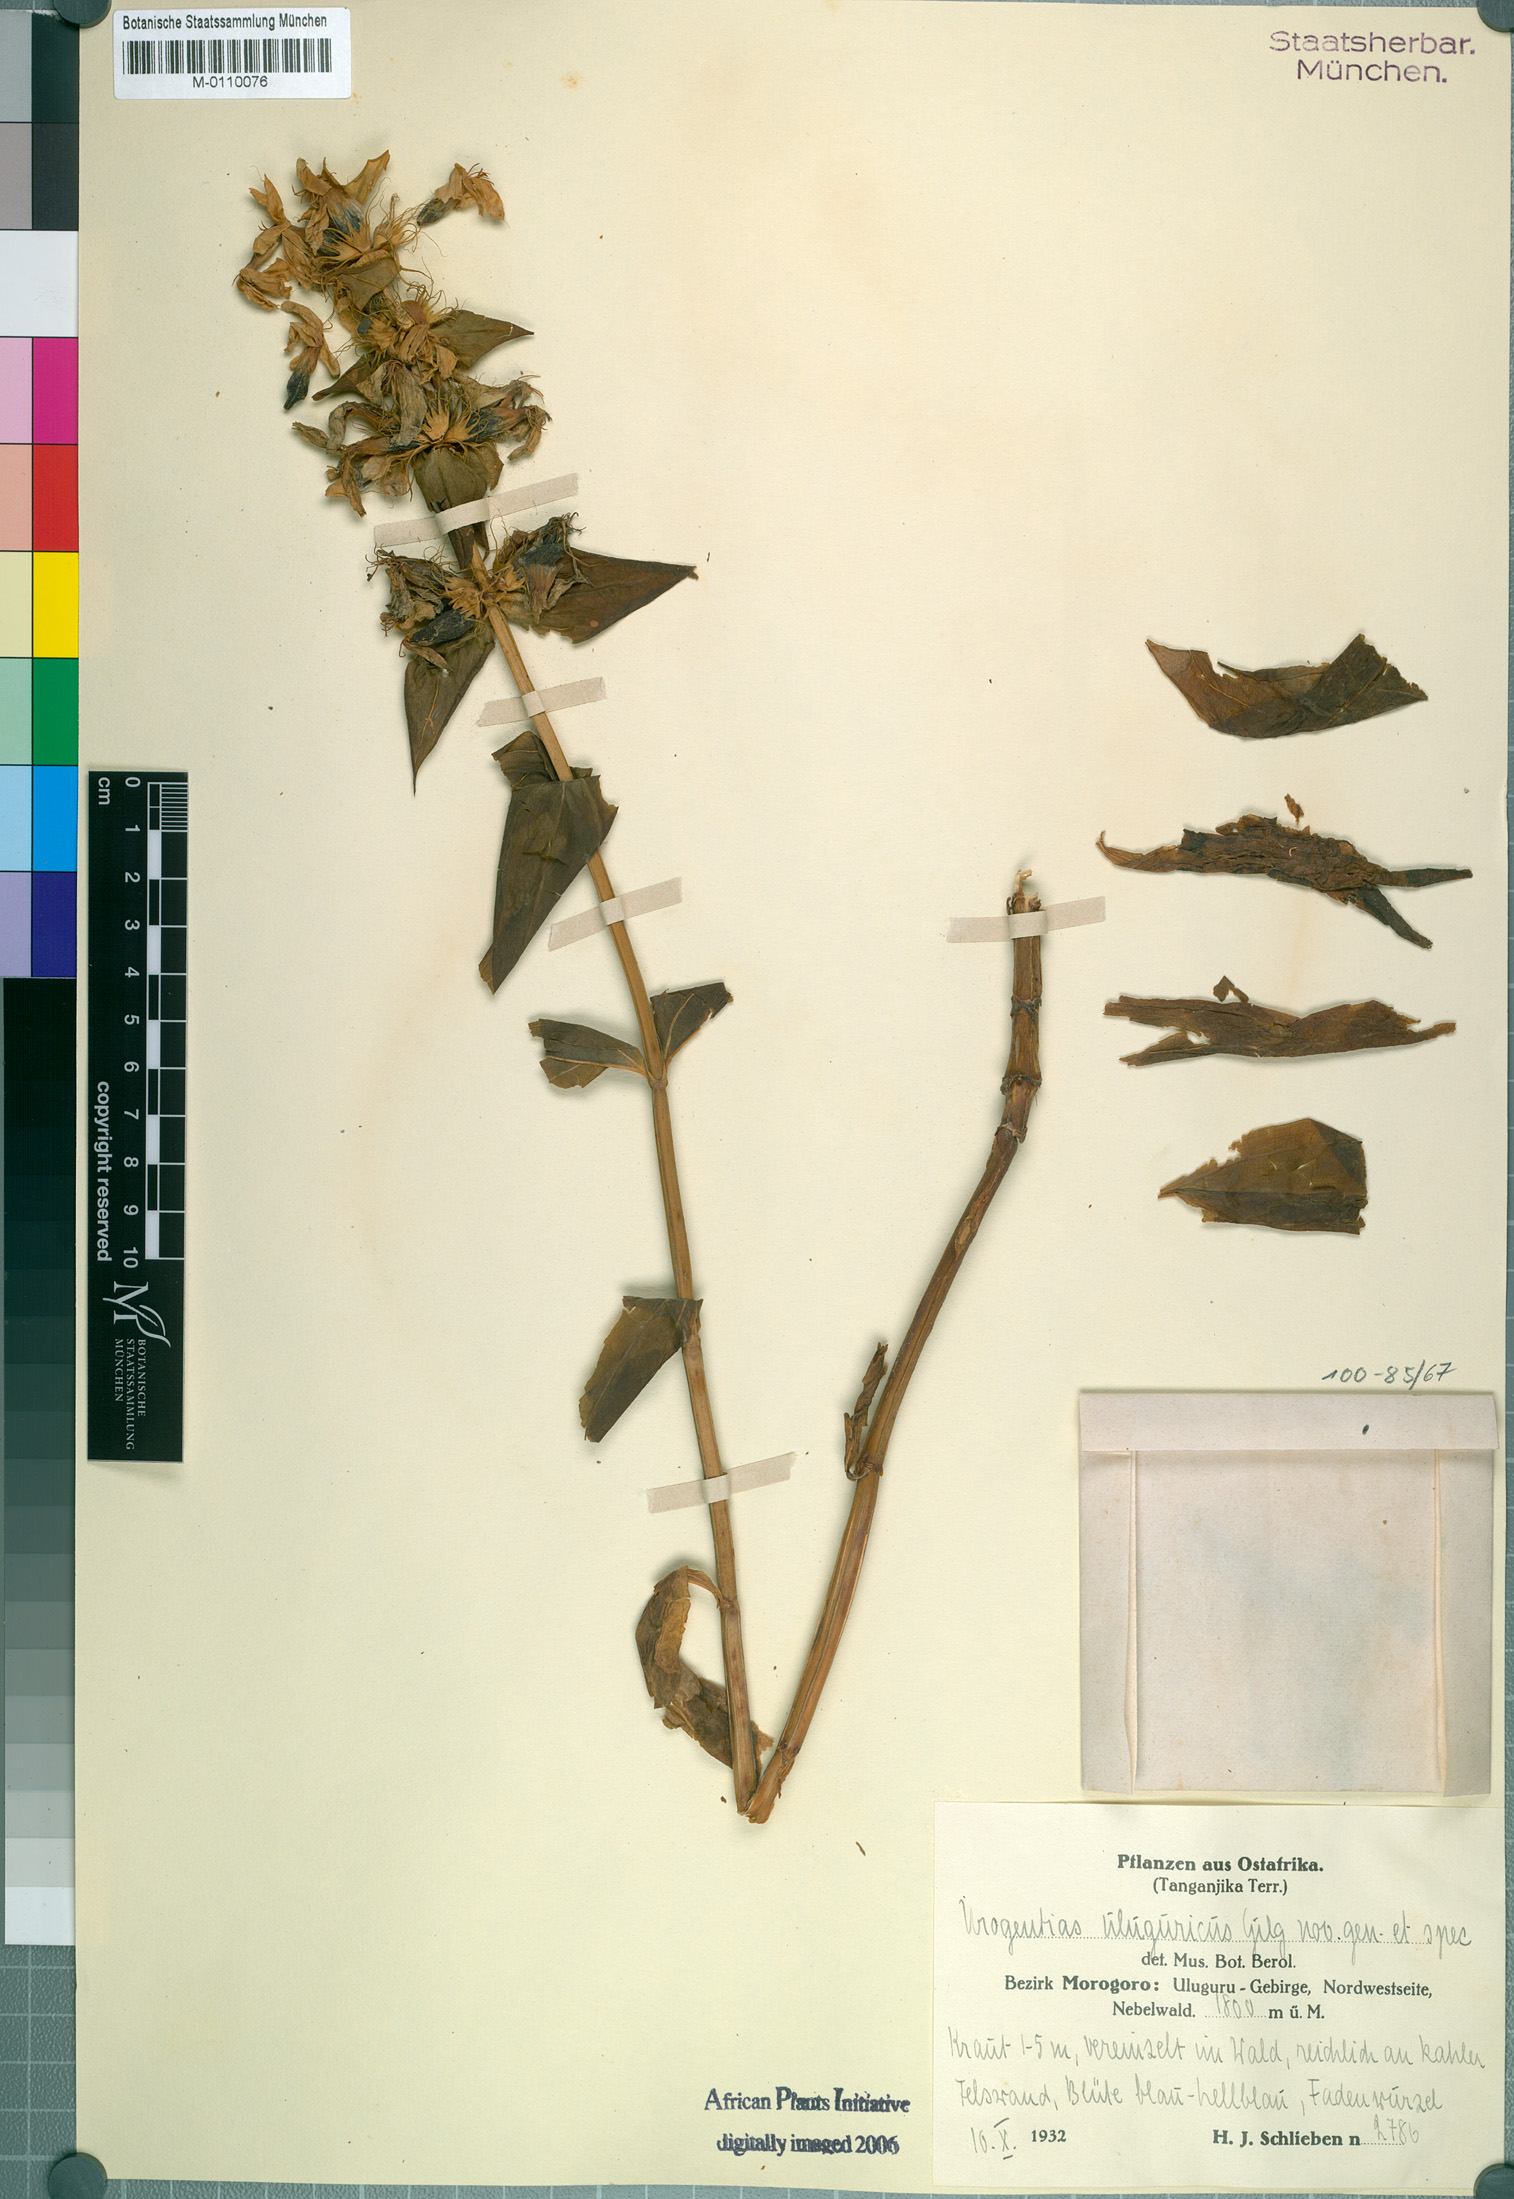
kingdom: Plantae
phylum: Tracheophyta
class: Magnoliopsida
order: Gentianales
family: Gentianaceae
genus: Urogentias
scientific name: Urogentias ulugurensis
